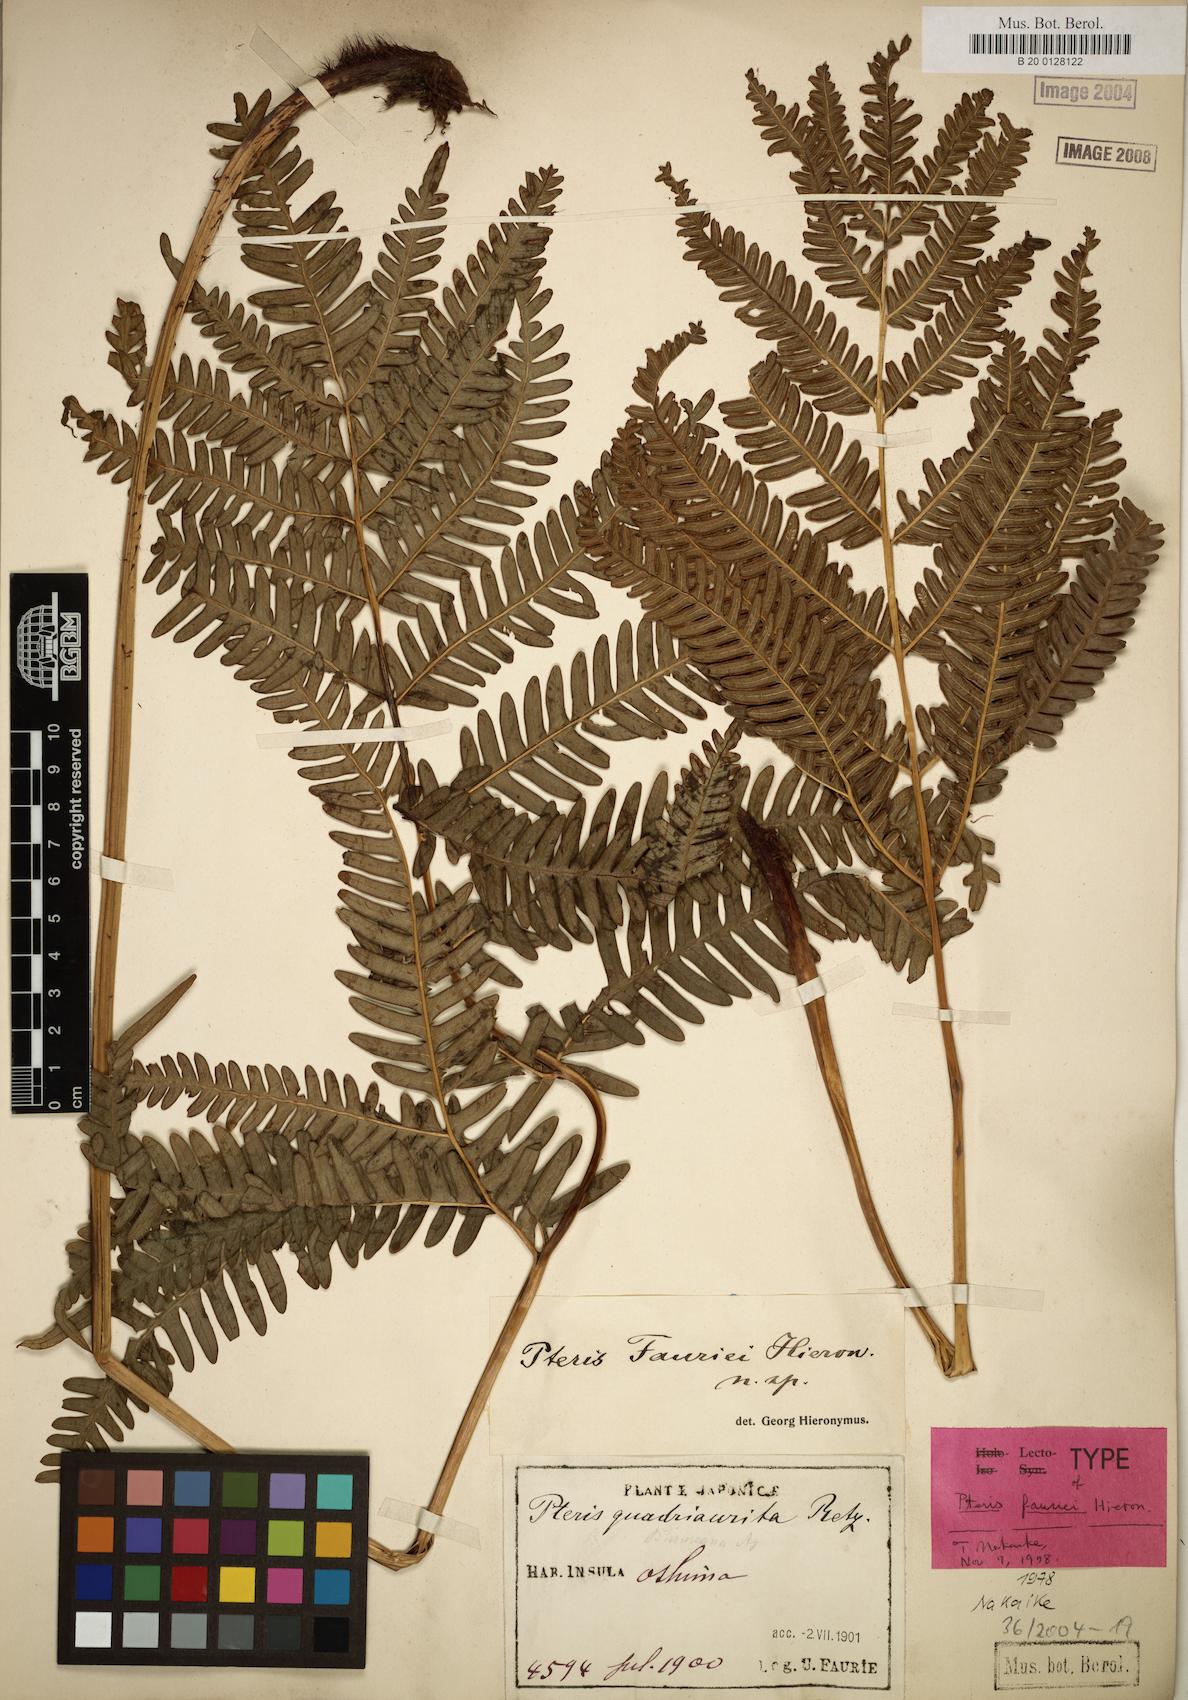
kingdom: Plantae
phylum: Tracheophyta
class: Polypodiopsida
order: Polypodiales
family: Pteridaceae
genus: Pteris
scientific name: Pteris fauriei
